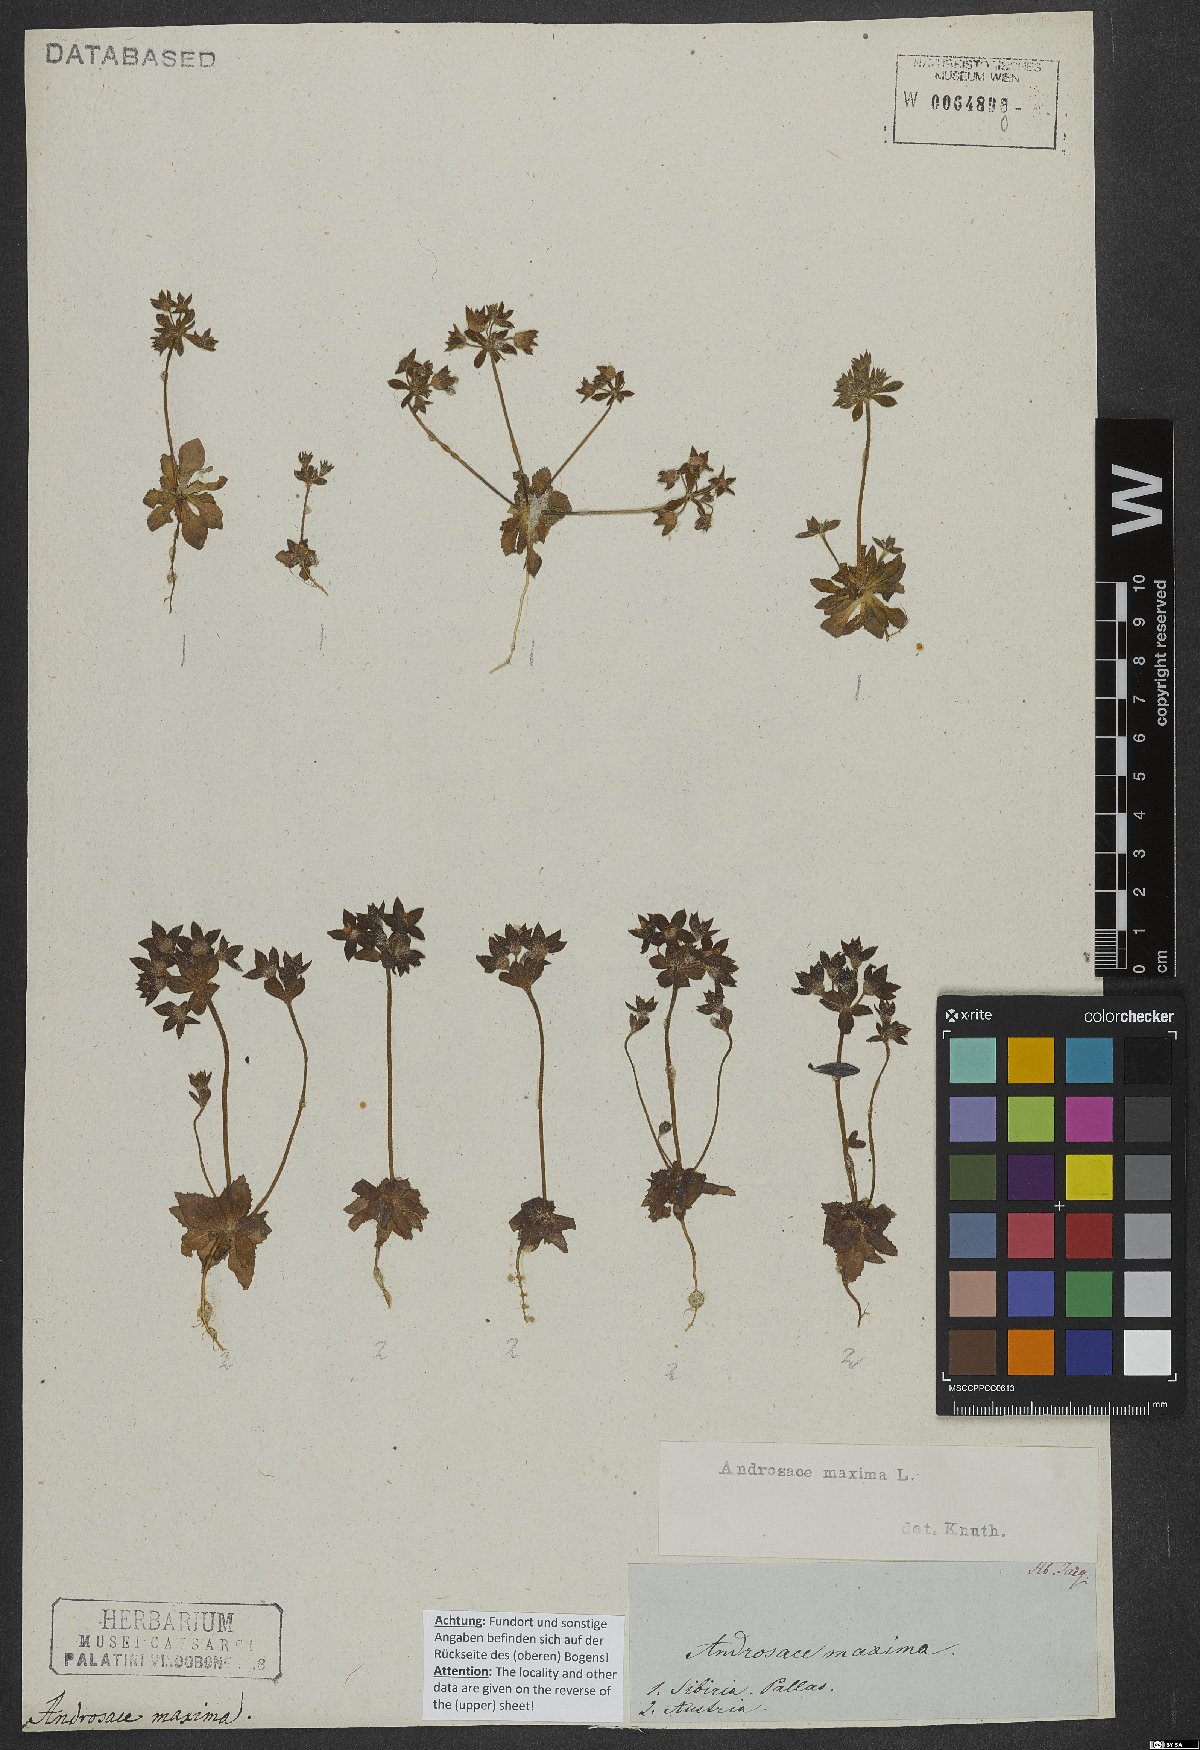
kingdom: Plantae
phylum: Tracheophyta
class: Magnoliopsida
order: Ericales
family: Primulaceae
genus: Androsace
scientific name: Androsace maxima
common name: Annual androsace
